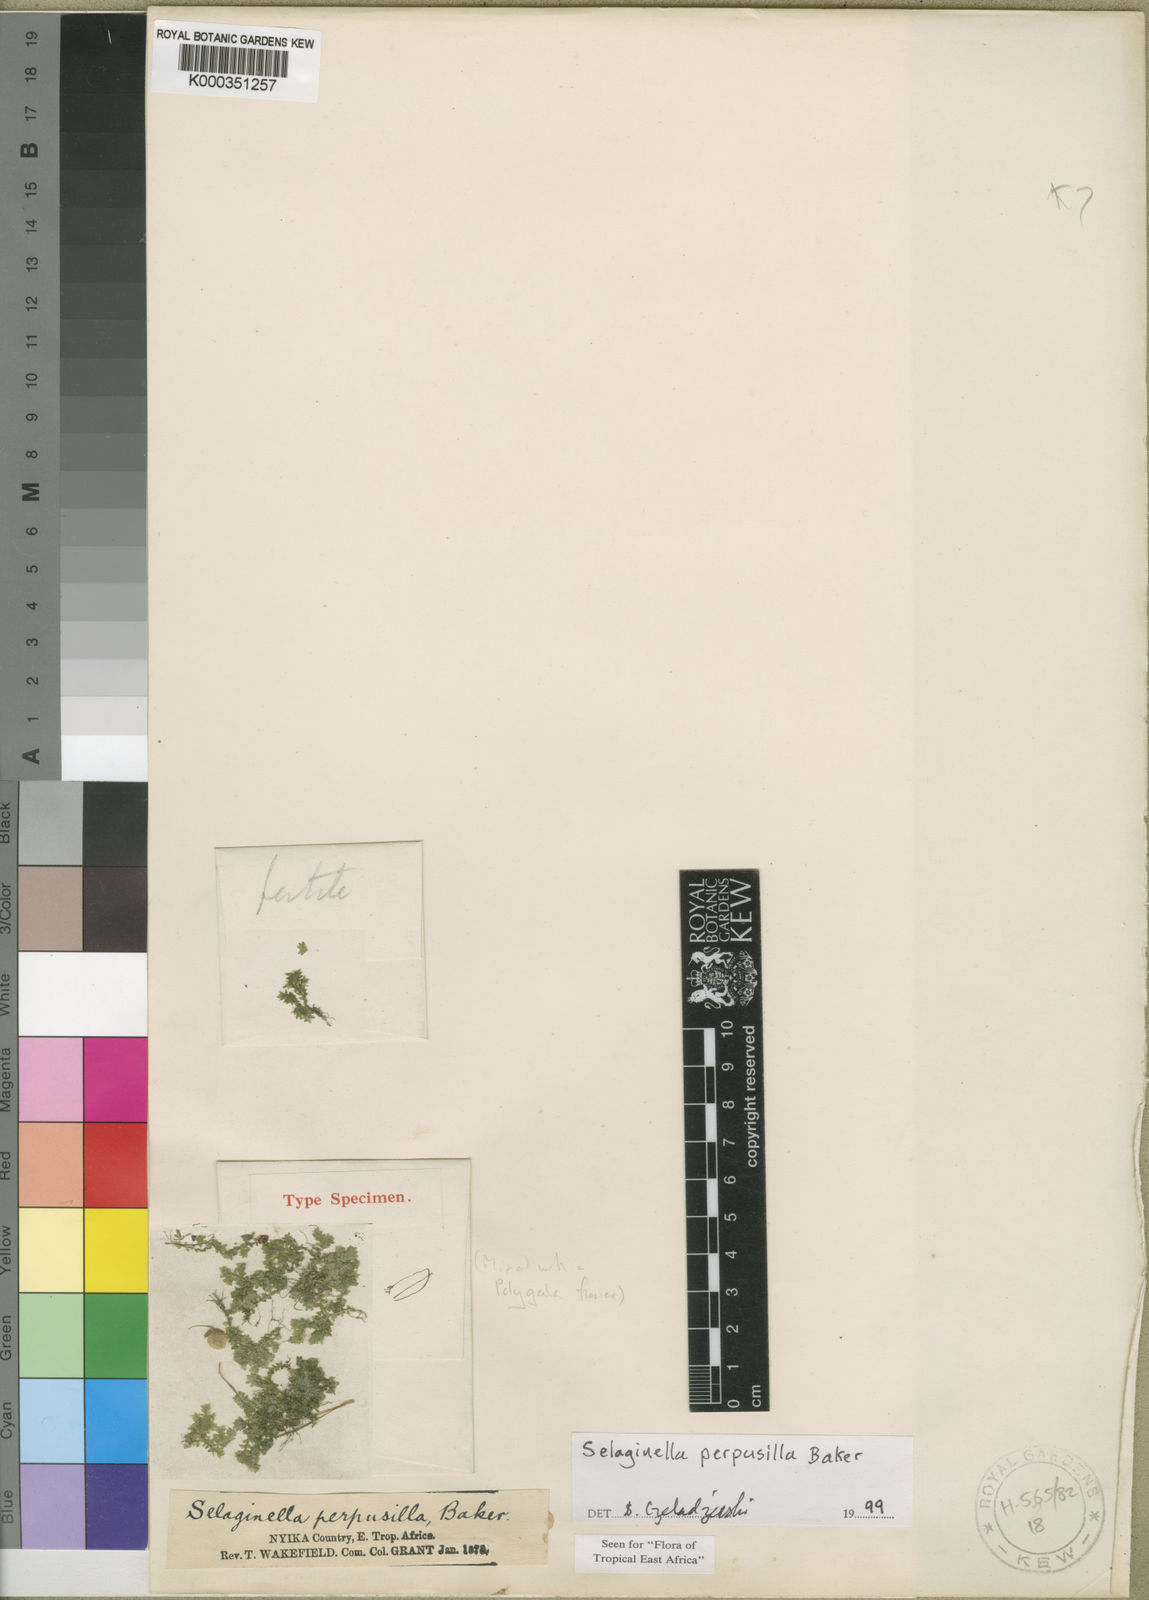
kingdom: Plantae
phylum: Tracheophyta
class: Lycopodiopsida
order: Selaginellales
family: Selaginellaceae
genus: Selaginella
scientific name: Selaginella perpusilla
